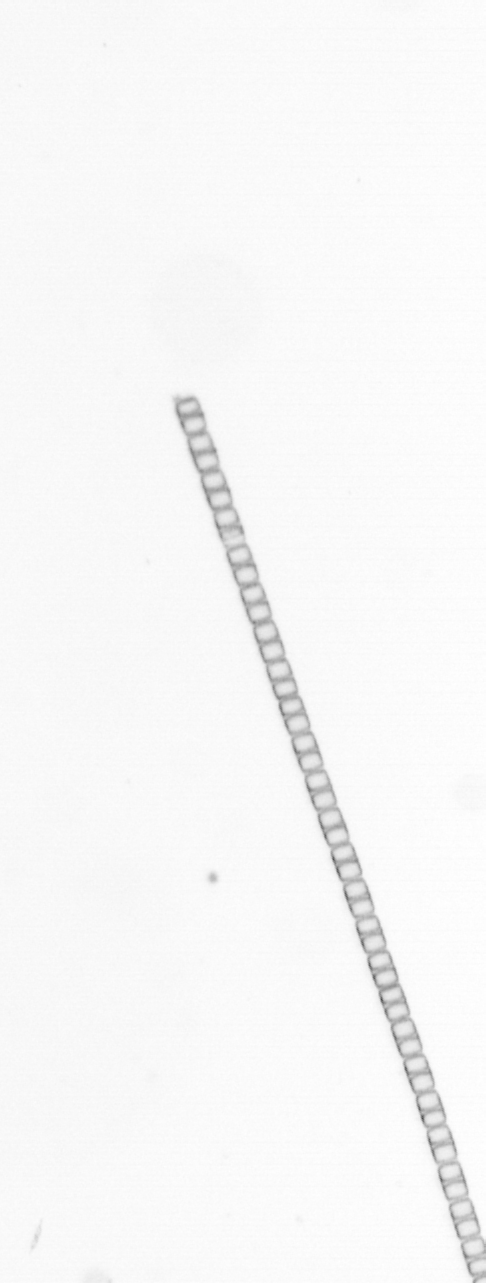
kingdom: Chromista
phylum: Ochrophyta
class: Bacillariophyceae
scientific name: Bacillariophyceae
